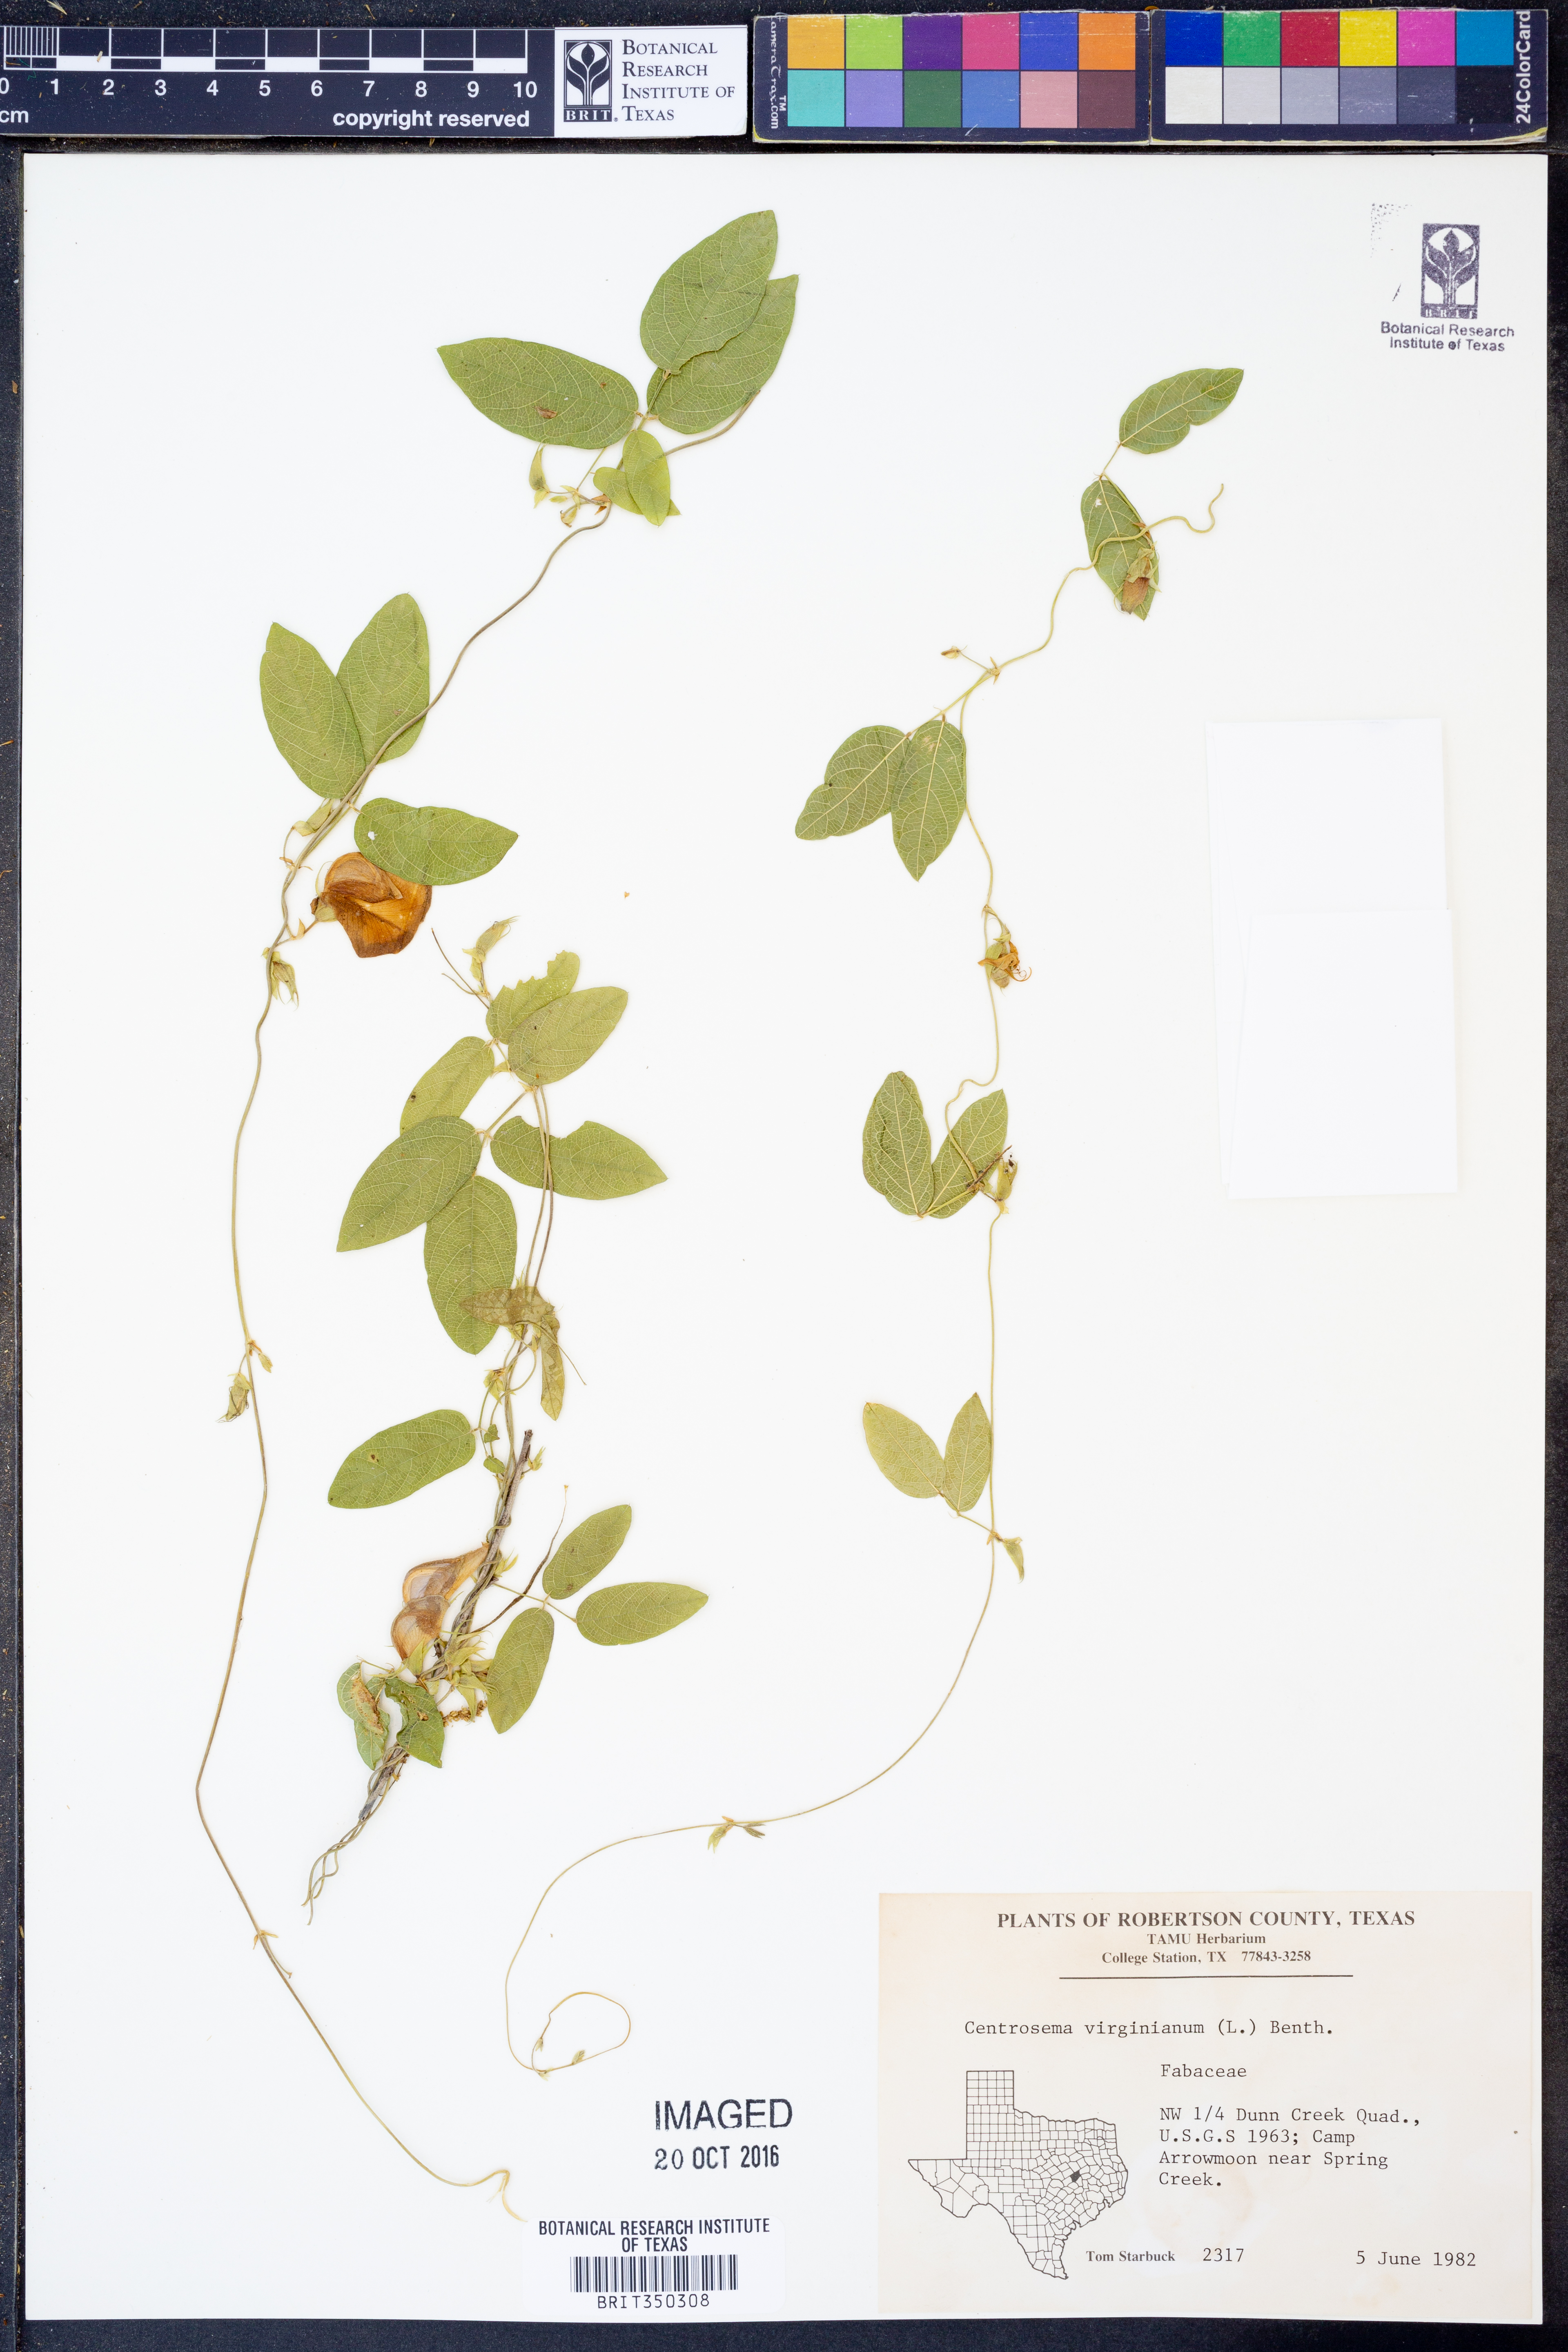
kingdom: Plantae
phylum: Tracheophyta
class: Magnoliopsida
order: Fabales
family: Fabaceae
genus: Centrosema
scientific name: Centrosema virginianum
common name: Butterfly-pea
